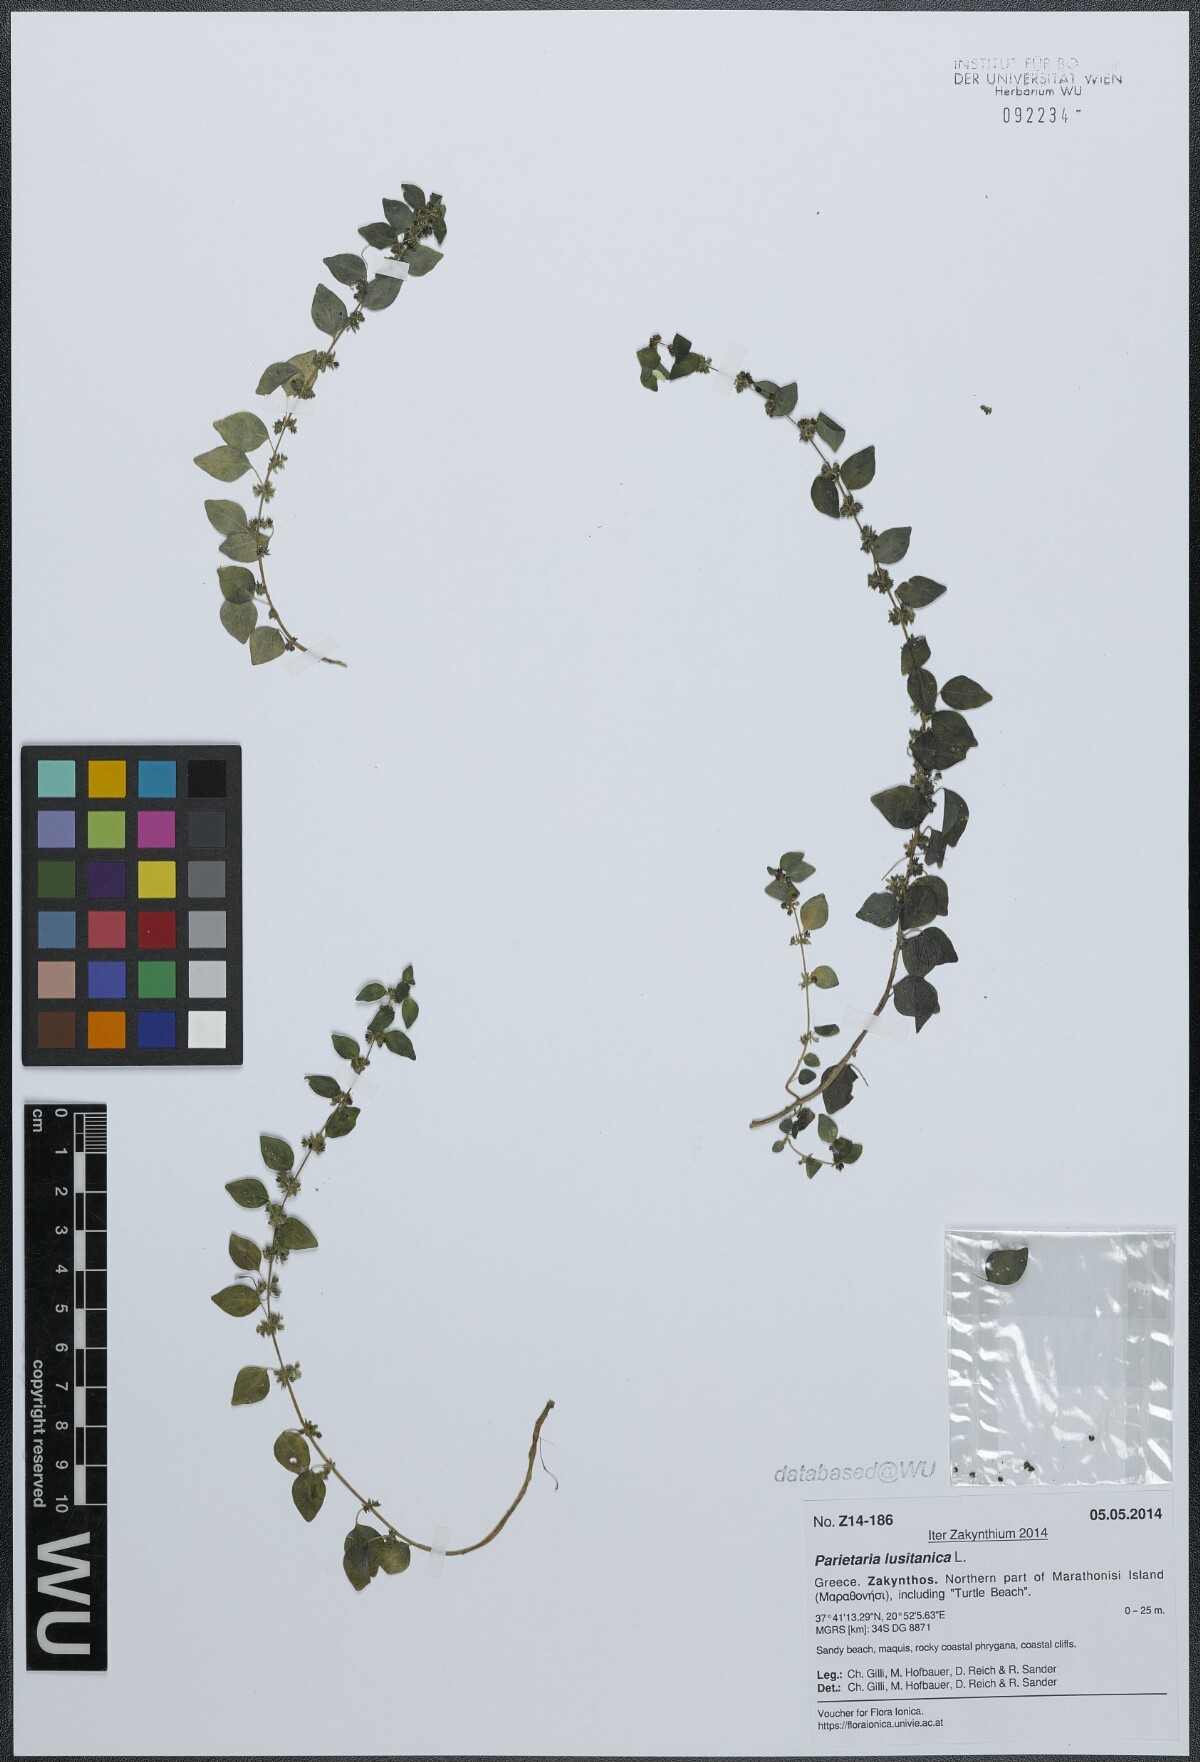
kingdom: Plantae
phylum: Tracheophyta
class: Magnoliopsida
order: Rosales
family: Urticaceae
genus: Parietaria
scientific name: Parietaria lusitanica
